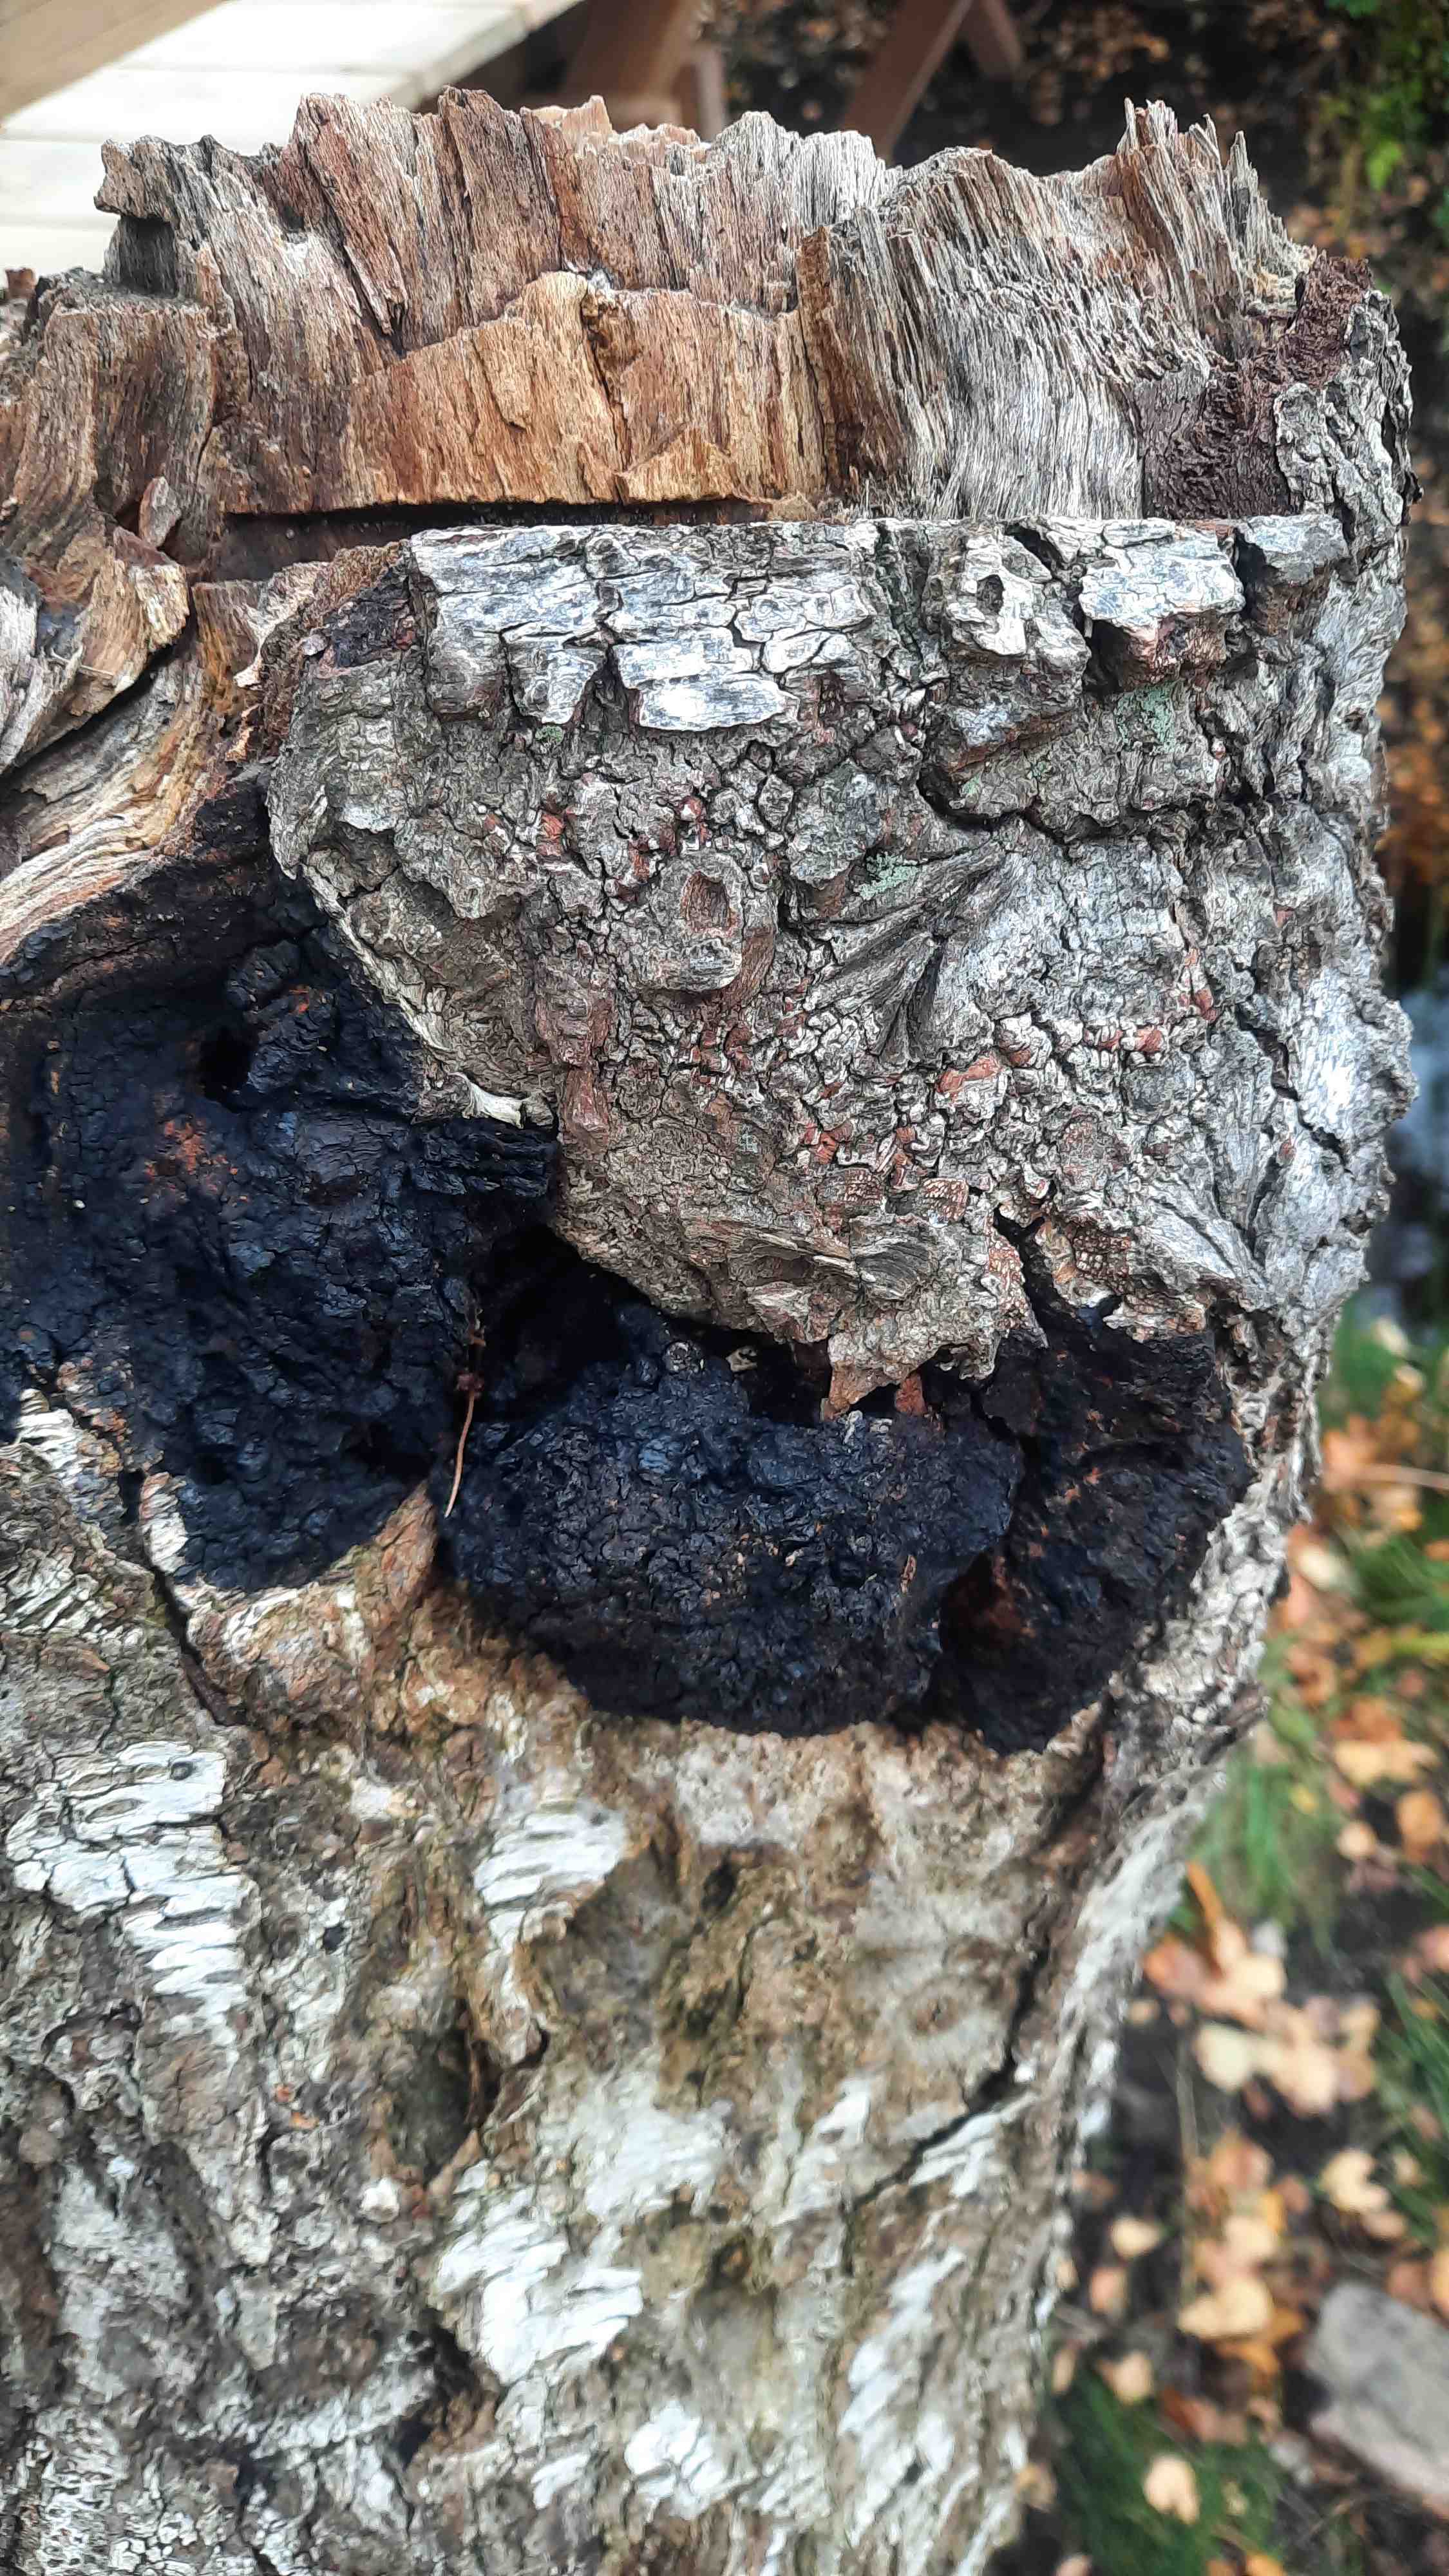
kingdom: Fungi
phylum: Basidiomycota
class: Agaricomycetes
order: Hymenochaetales
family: Hymenochaetaceae
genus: Inonotus
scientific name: Inonotus obliquus
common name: birke-spejlporesvamp
